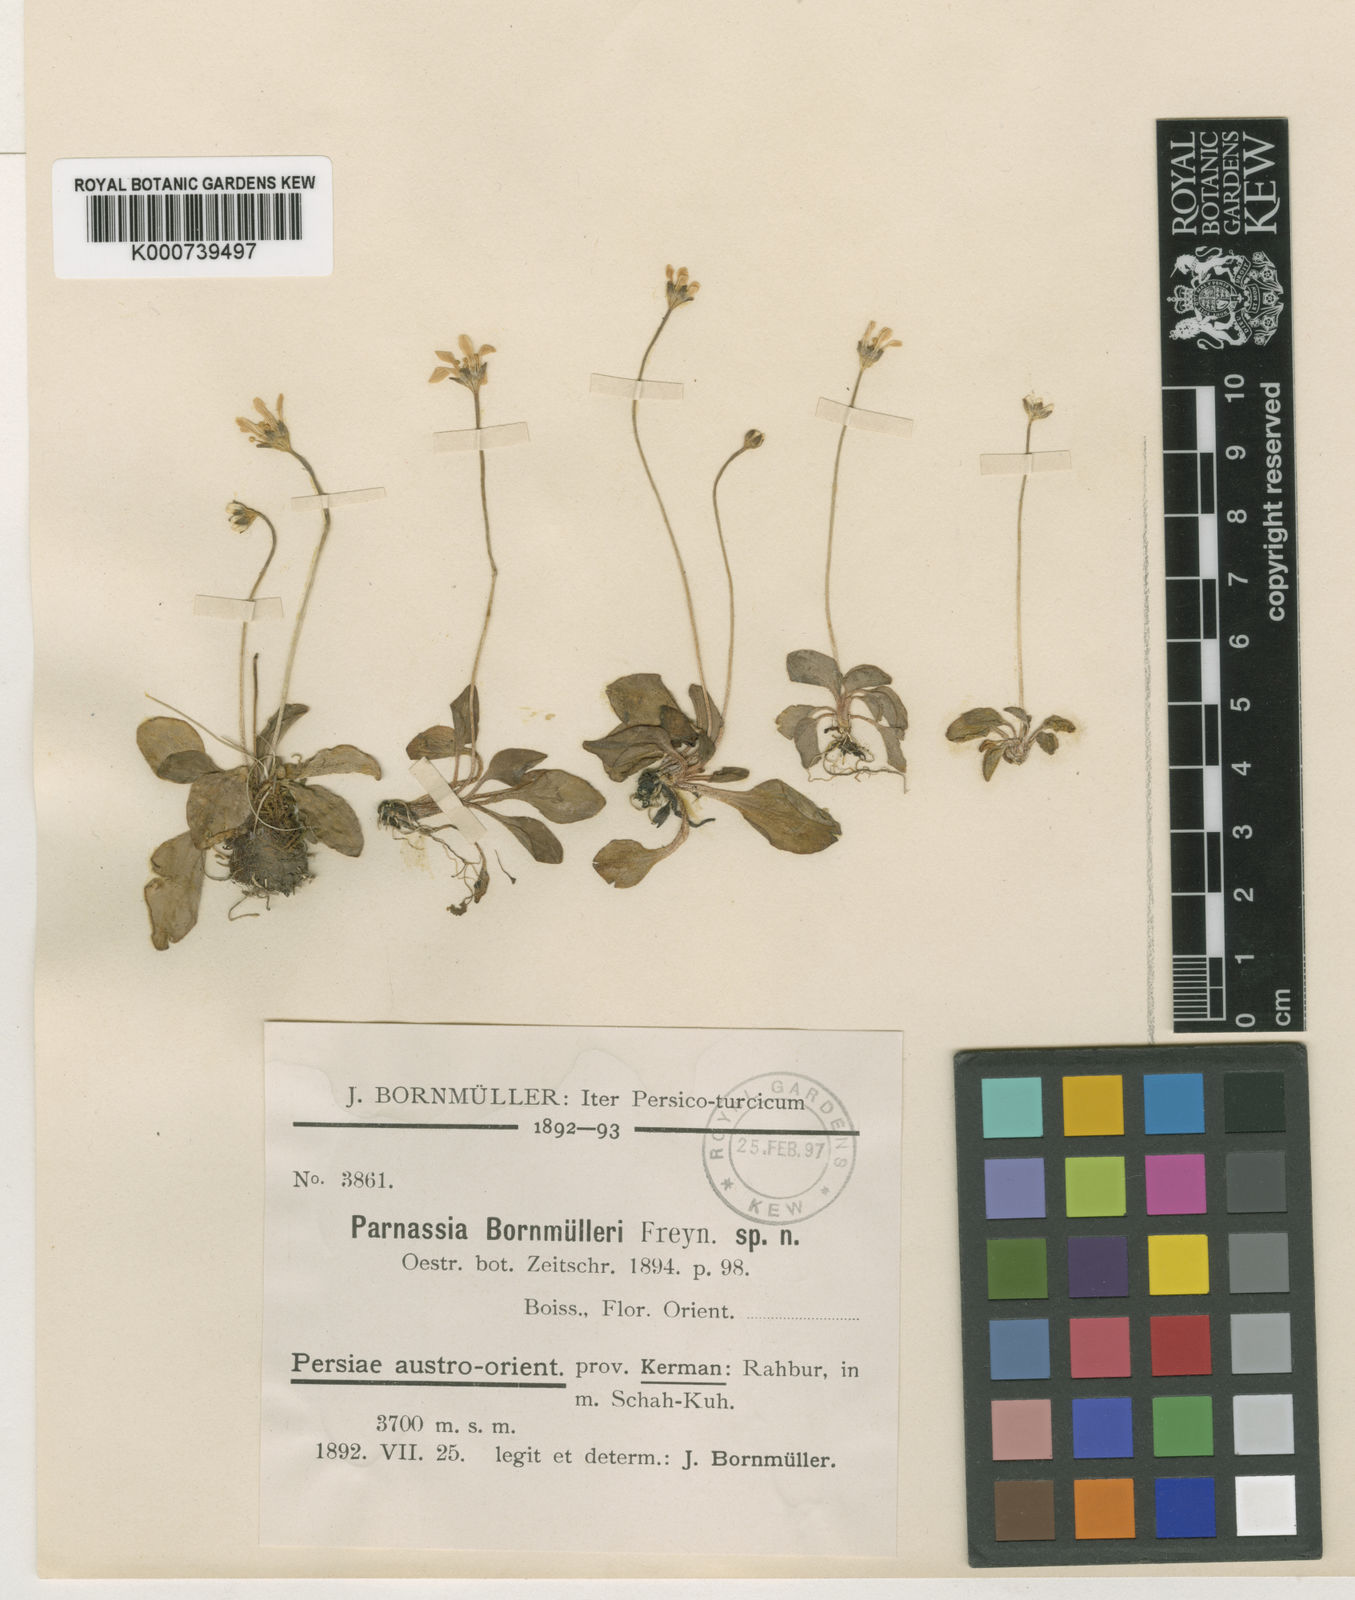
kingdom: Plantae
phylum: Tracheophyta
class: Magnoliopsida
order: Celastrales
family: Parnassiaceae
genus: Parnassia
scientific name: Parnassia cabulica
